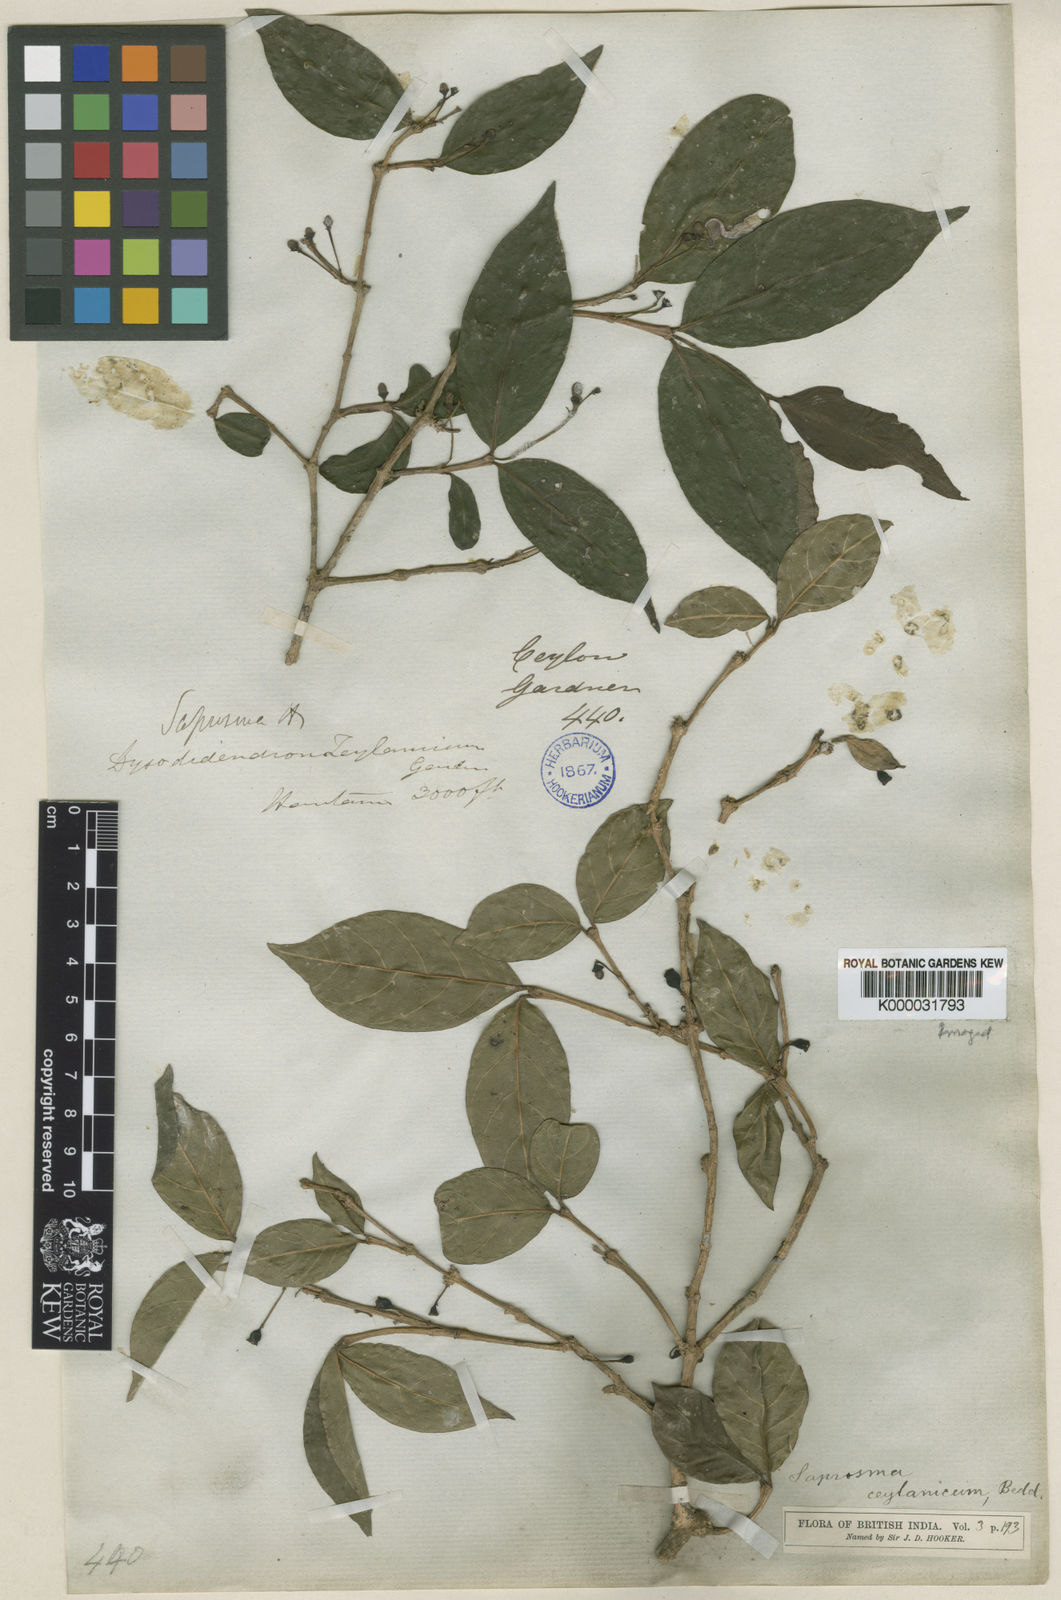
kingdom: Plantae
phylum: Tracheophyta
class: Magnoliopsida
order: Gentianales
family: Rubiaceae
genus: Saprosma
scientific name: Saprosma foetens
